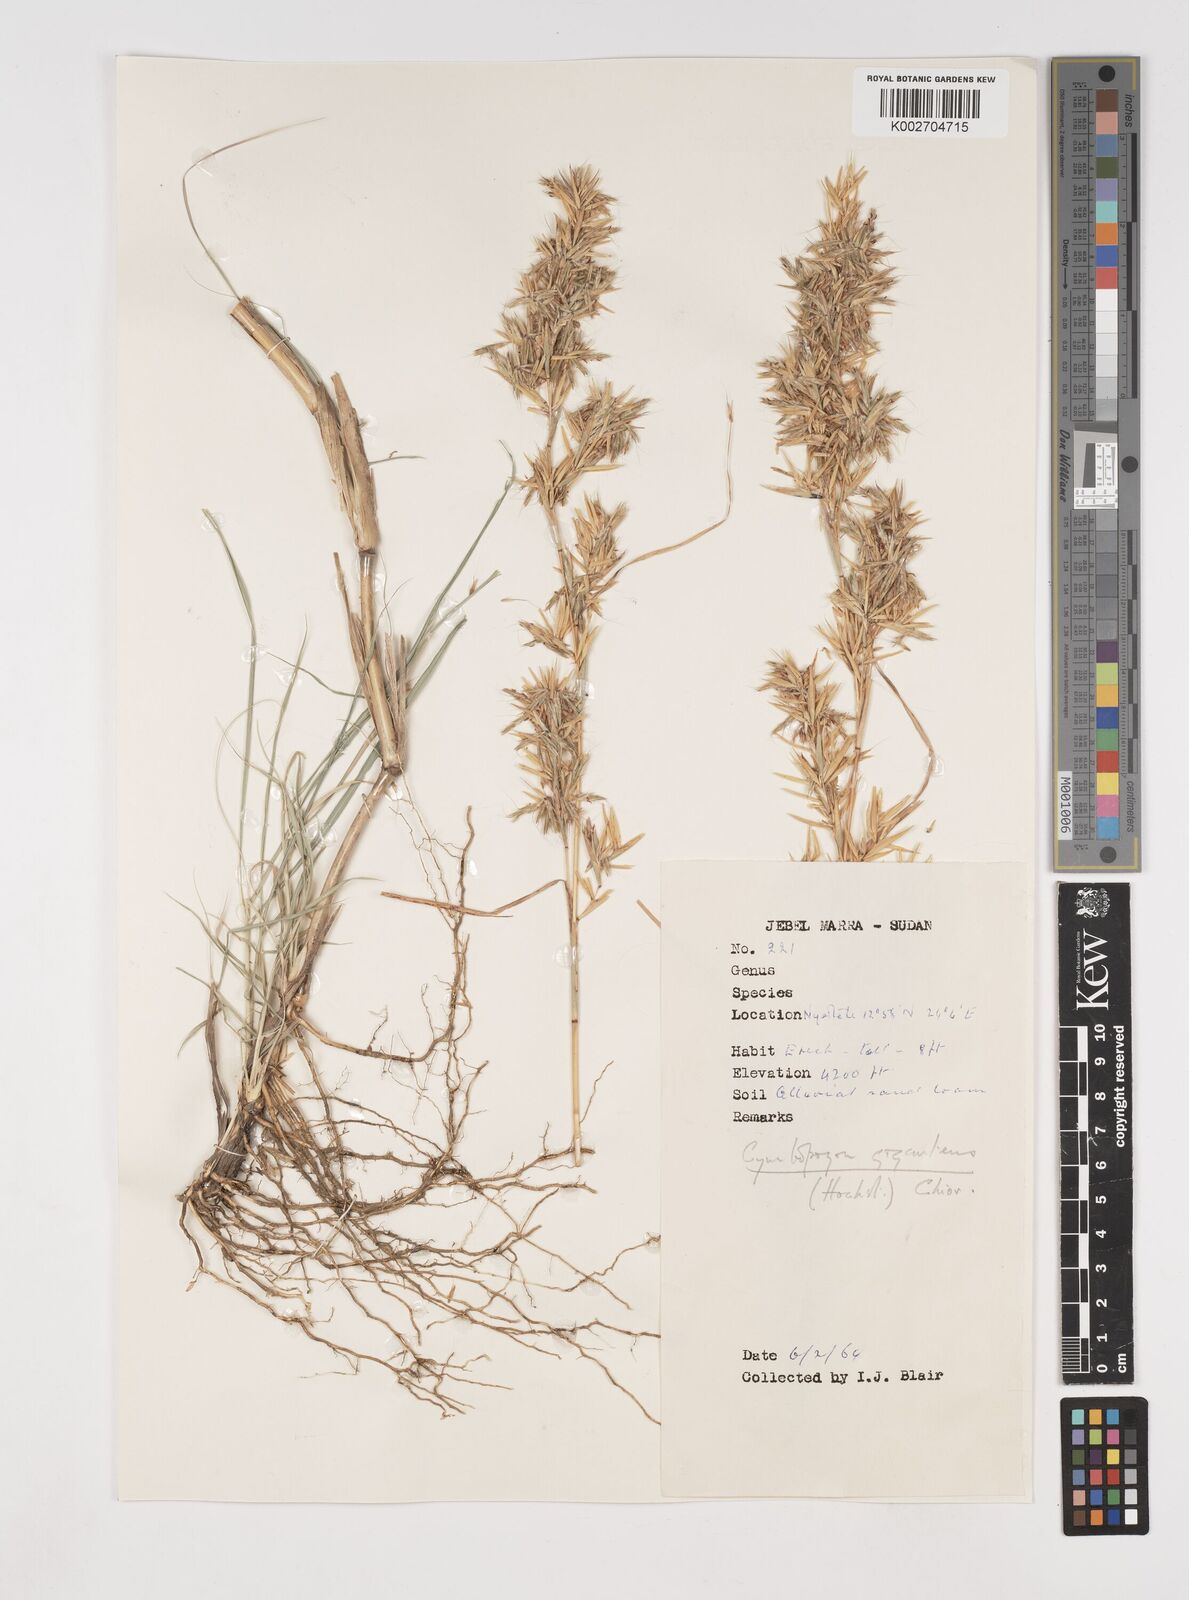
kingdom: Plantae
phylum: Tracheophyta
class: Liliopsida
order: Poales
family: Poaceae
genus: Cymbopogon
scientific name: Cymbopogon
